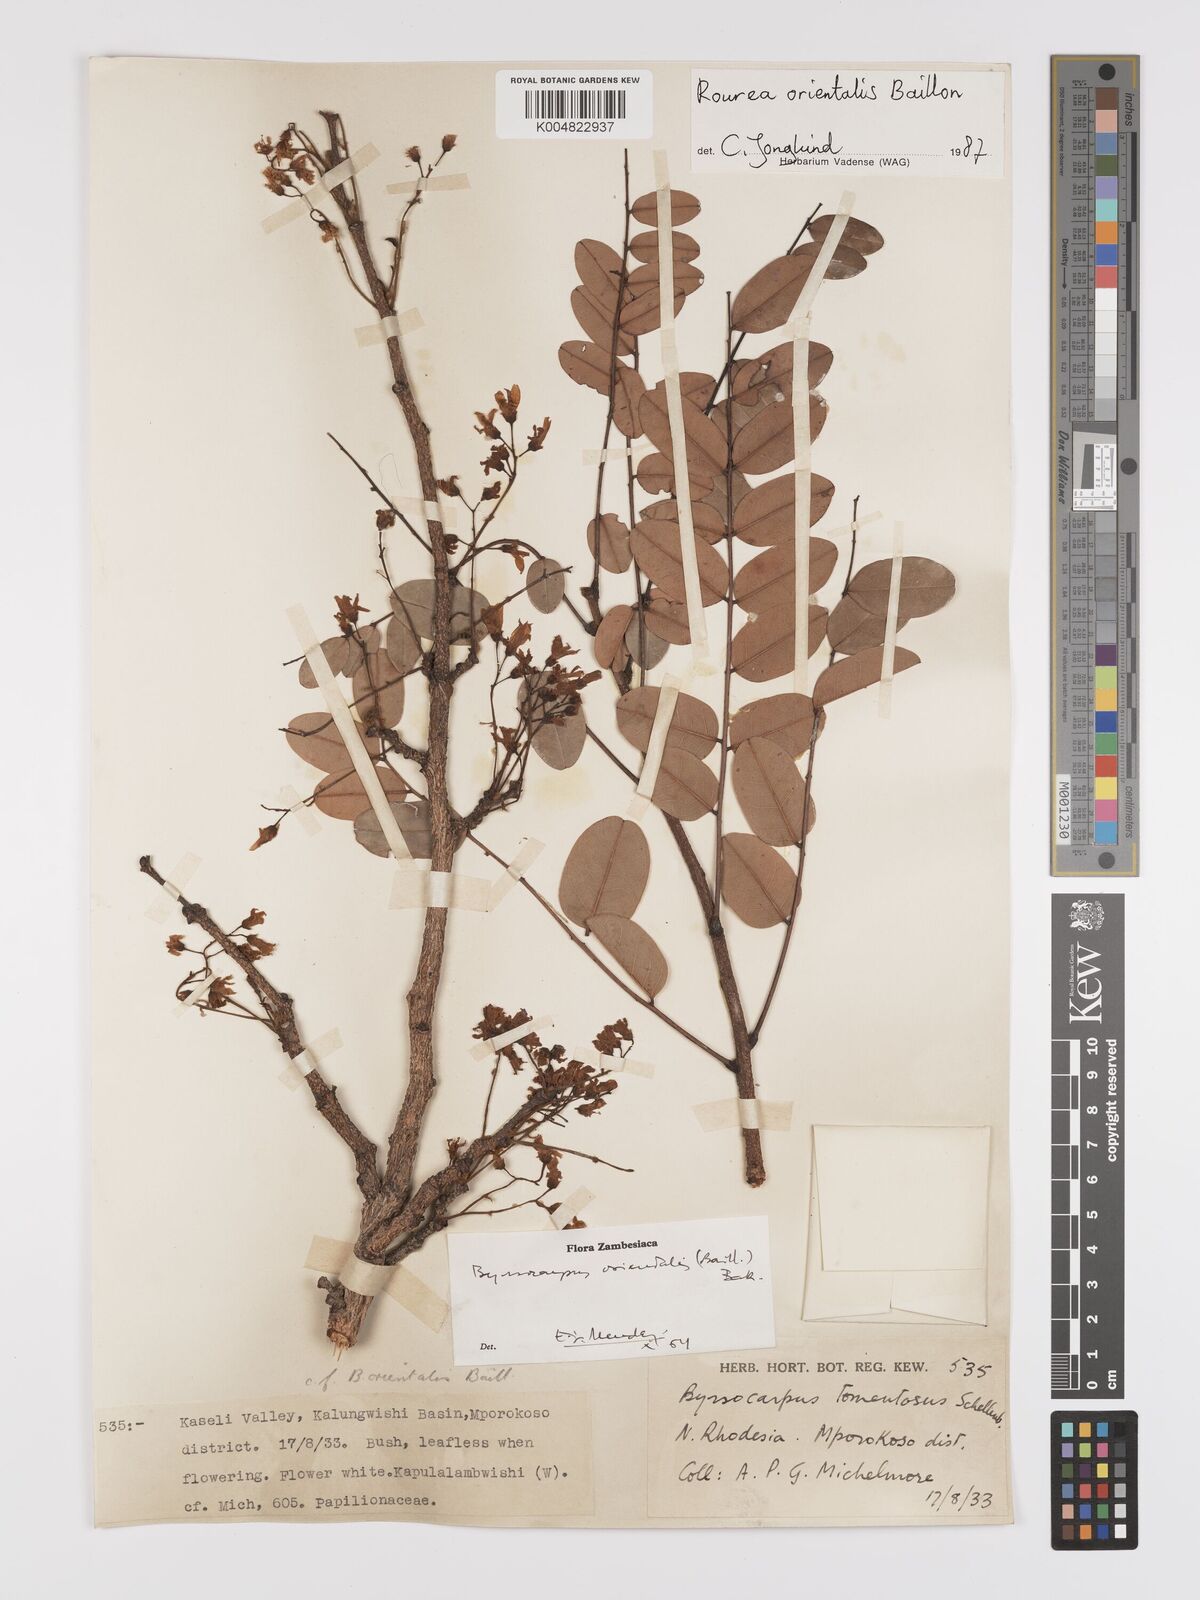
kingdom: Plantae
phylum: Tracheophyta
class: Magnoliopsida
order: Oxalidales
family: Connaraceae
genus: Rourea
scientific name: Rourea orientalis
